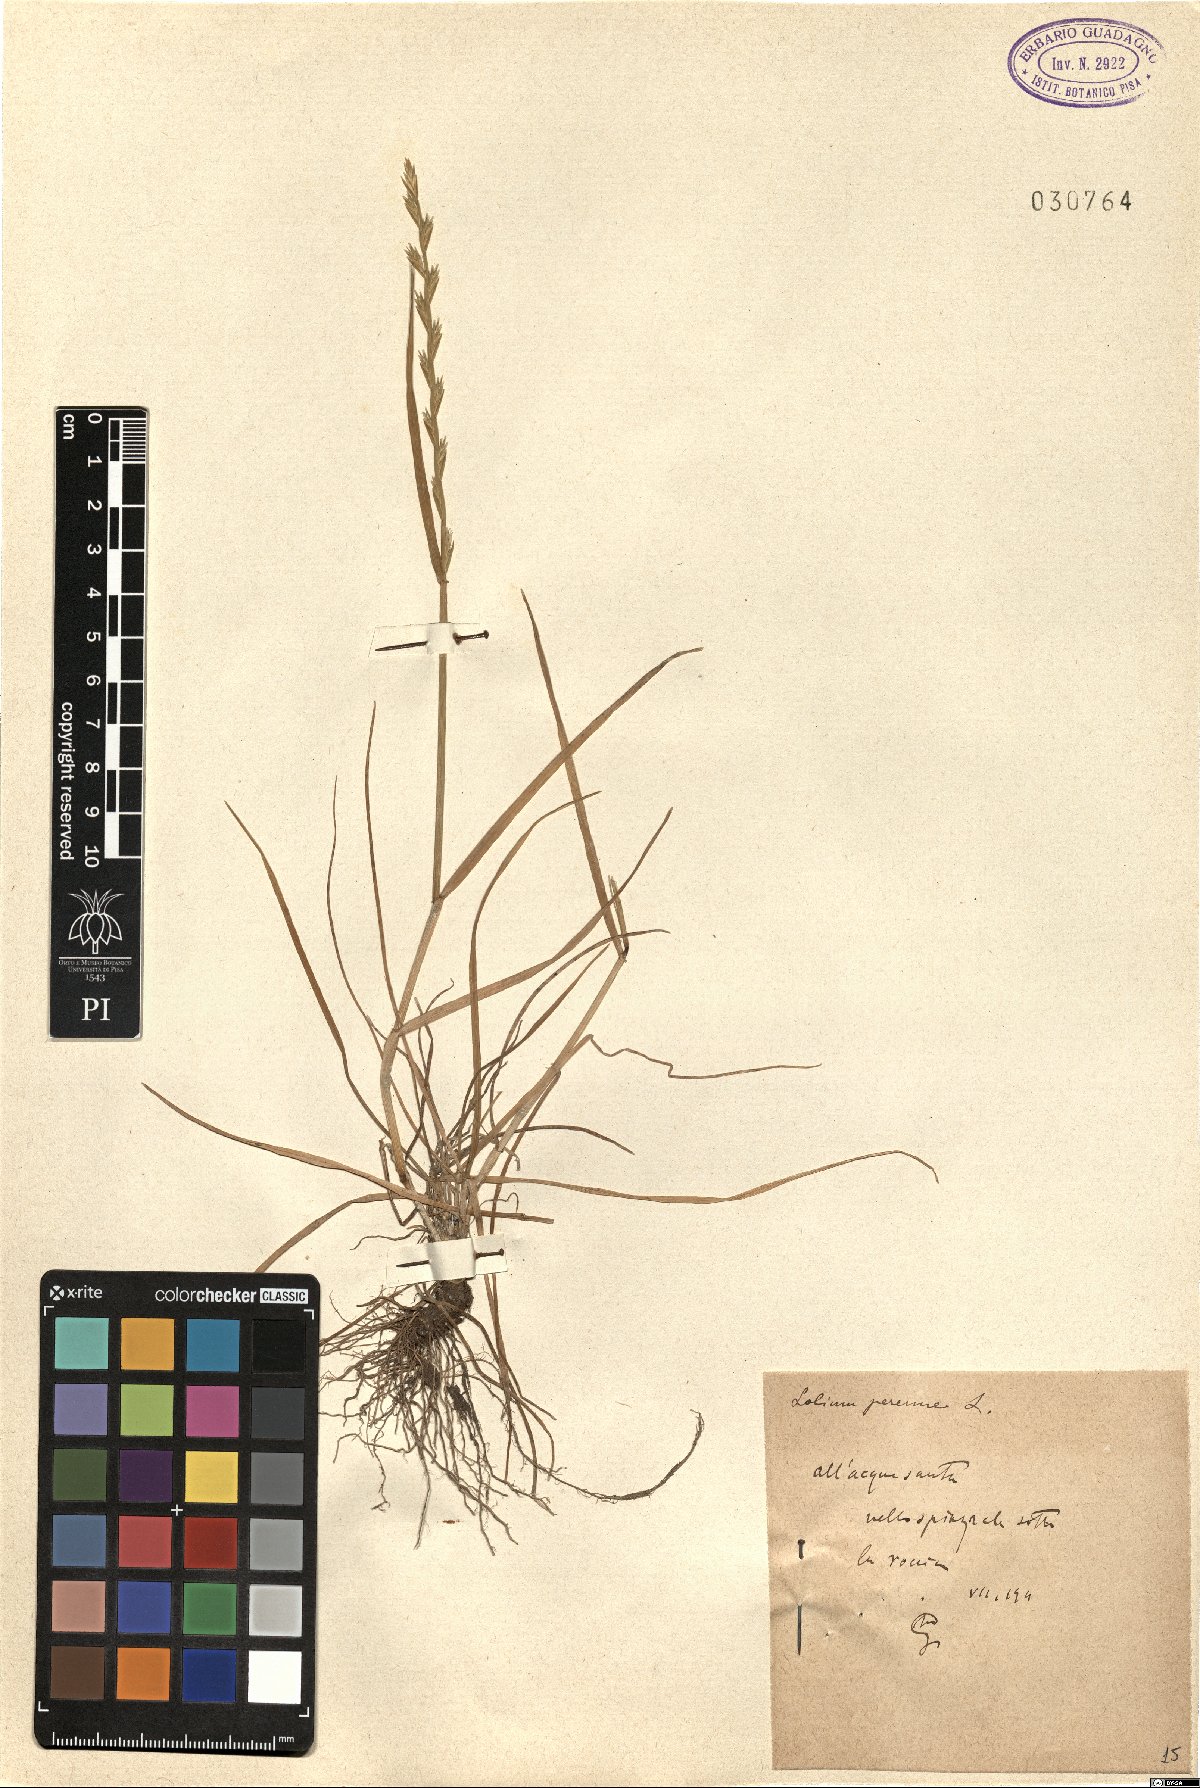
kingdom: Plantae
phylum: Tracheophyta
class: Liliopsida
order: Poales
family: Poaceae
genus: Lolium
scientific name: Lolium perenne
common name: Perennial ryegrass
